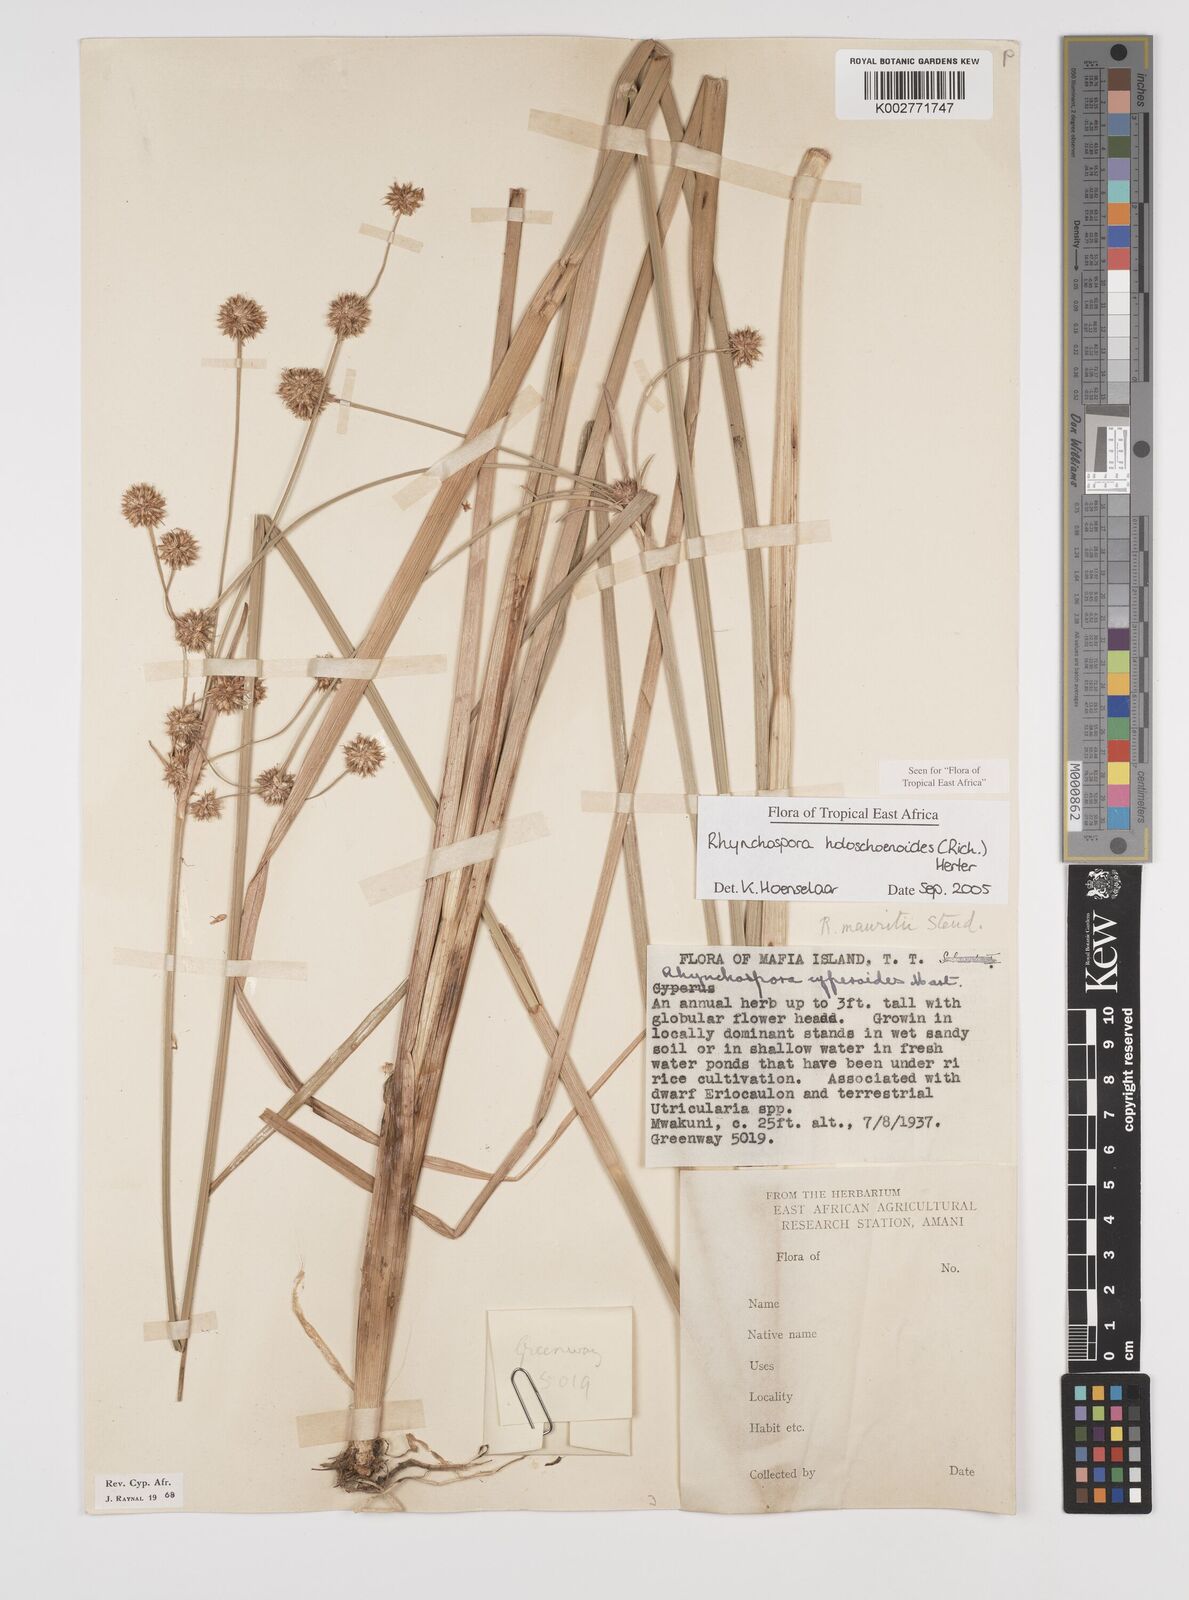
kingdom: Plantae
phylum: Tracheophyta
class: Liliopsida
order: Poales
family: Cyperaceae
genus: Rhynchospora
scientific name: Rhynchospora holoschoenoides
